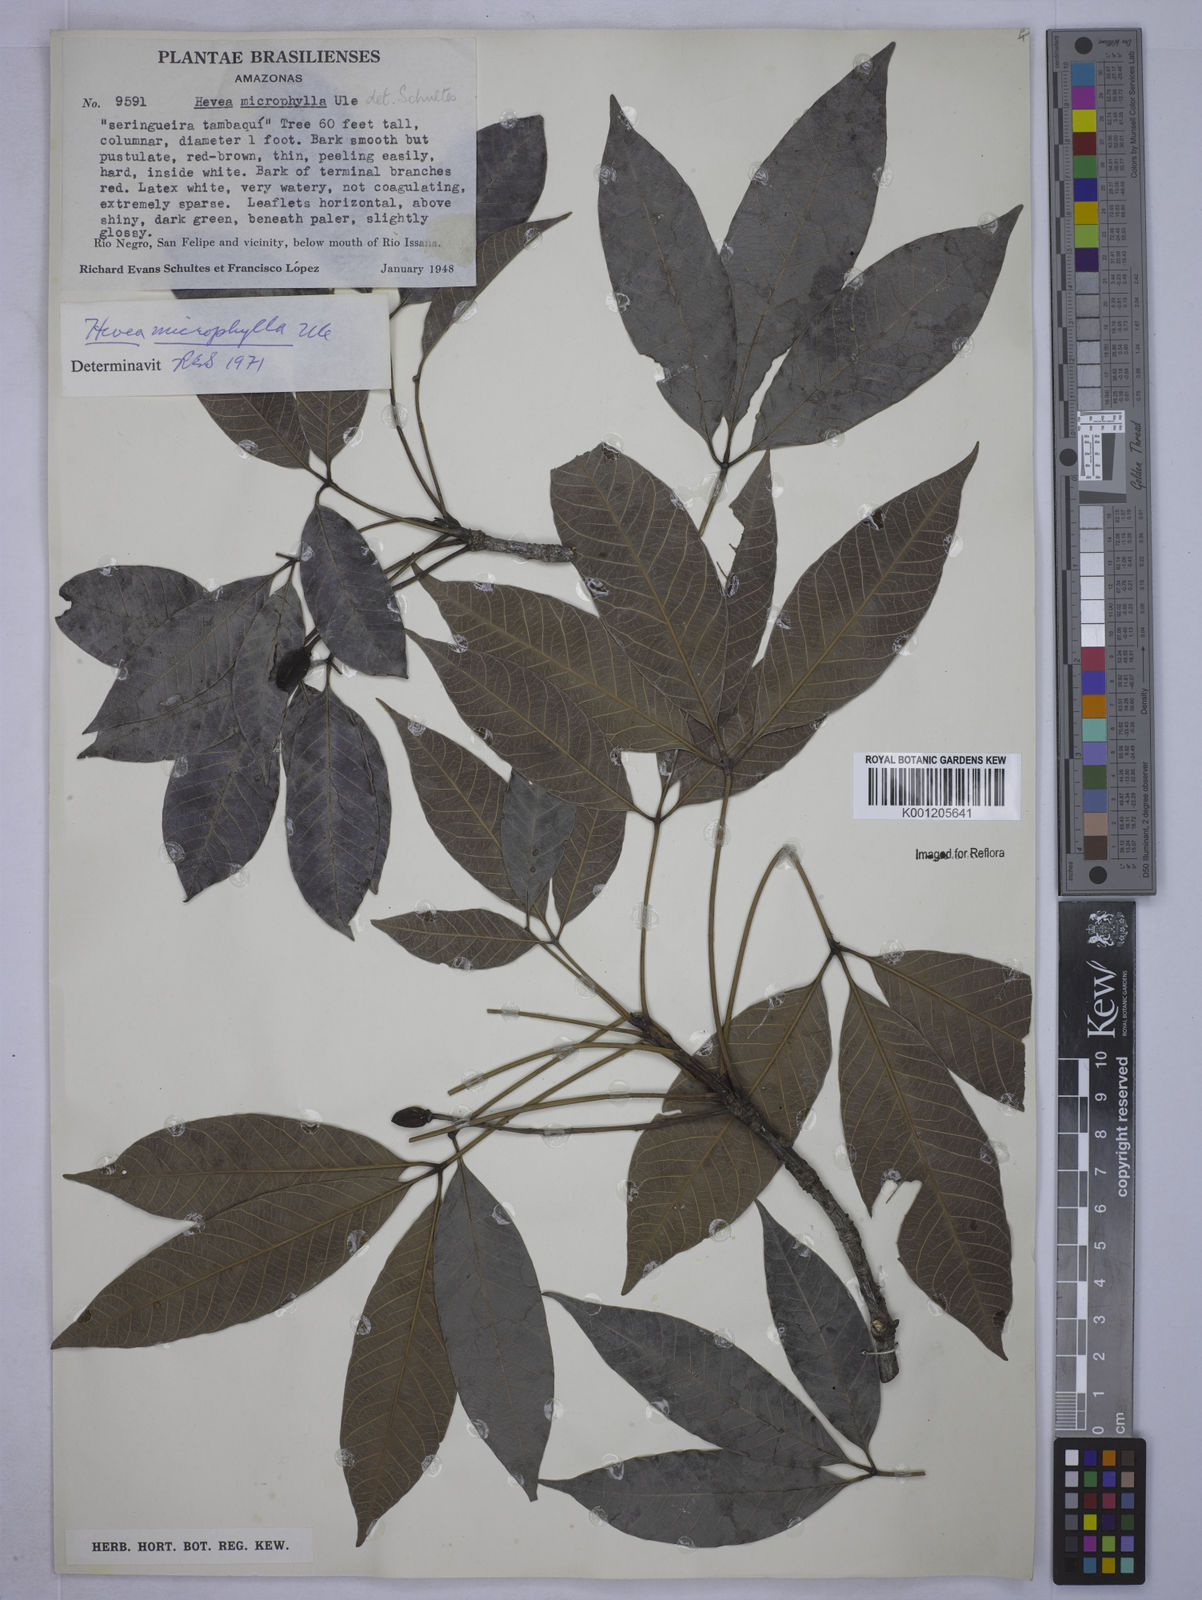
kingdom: Plantae
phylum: Tracheophyta
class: Magnoliopsida
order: Malpighiales
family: Euphorbiaceae
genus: Hevea
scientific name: Hevea microphylla
